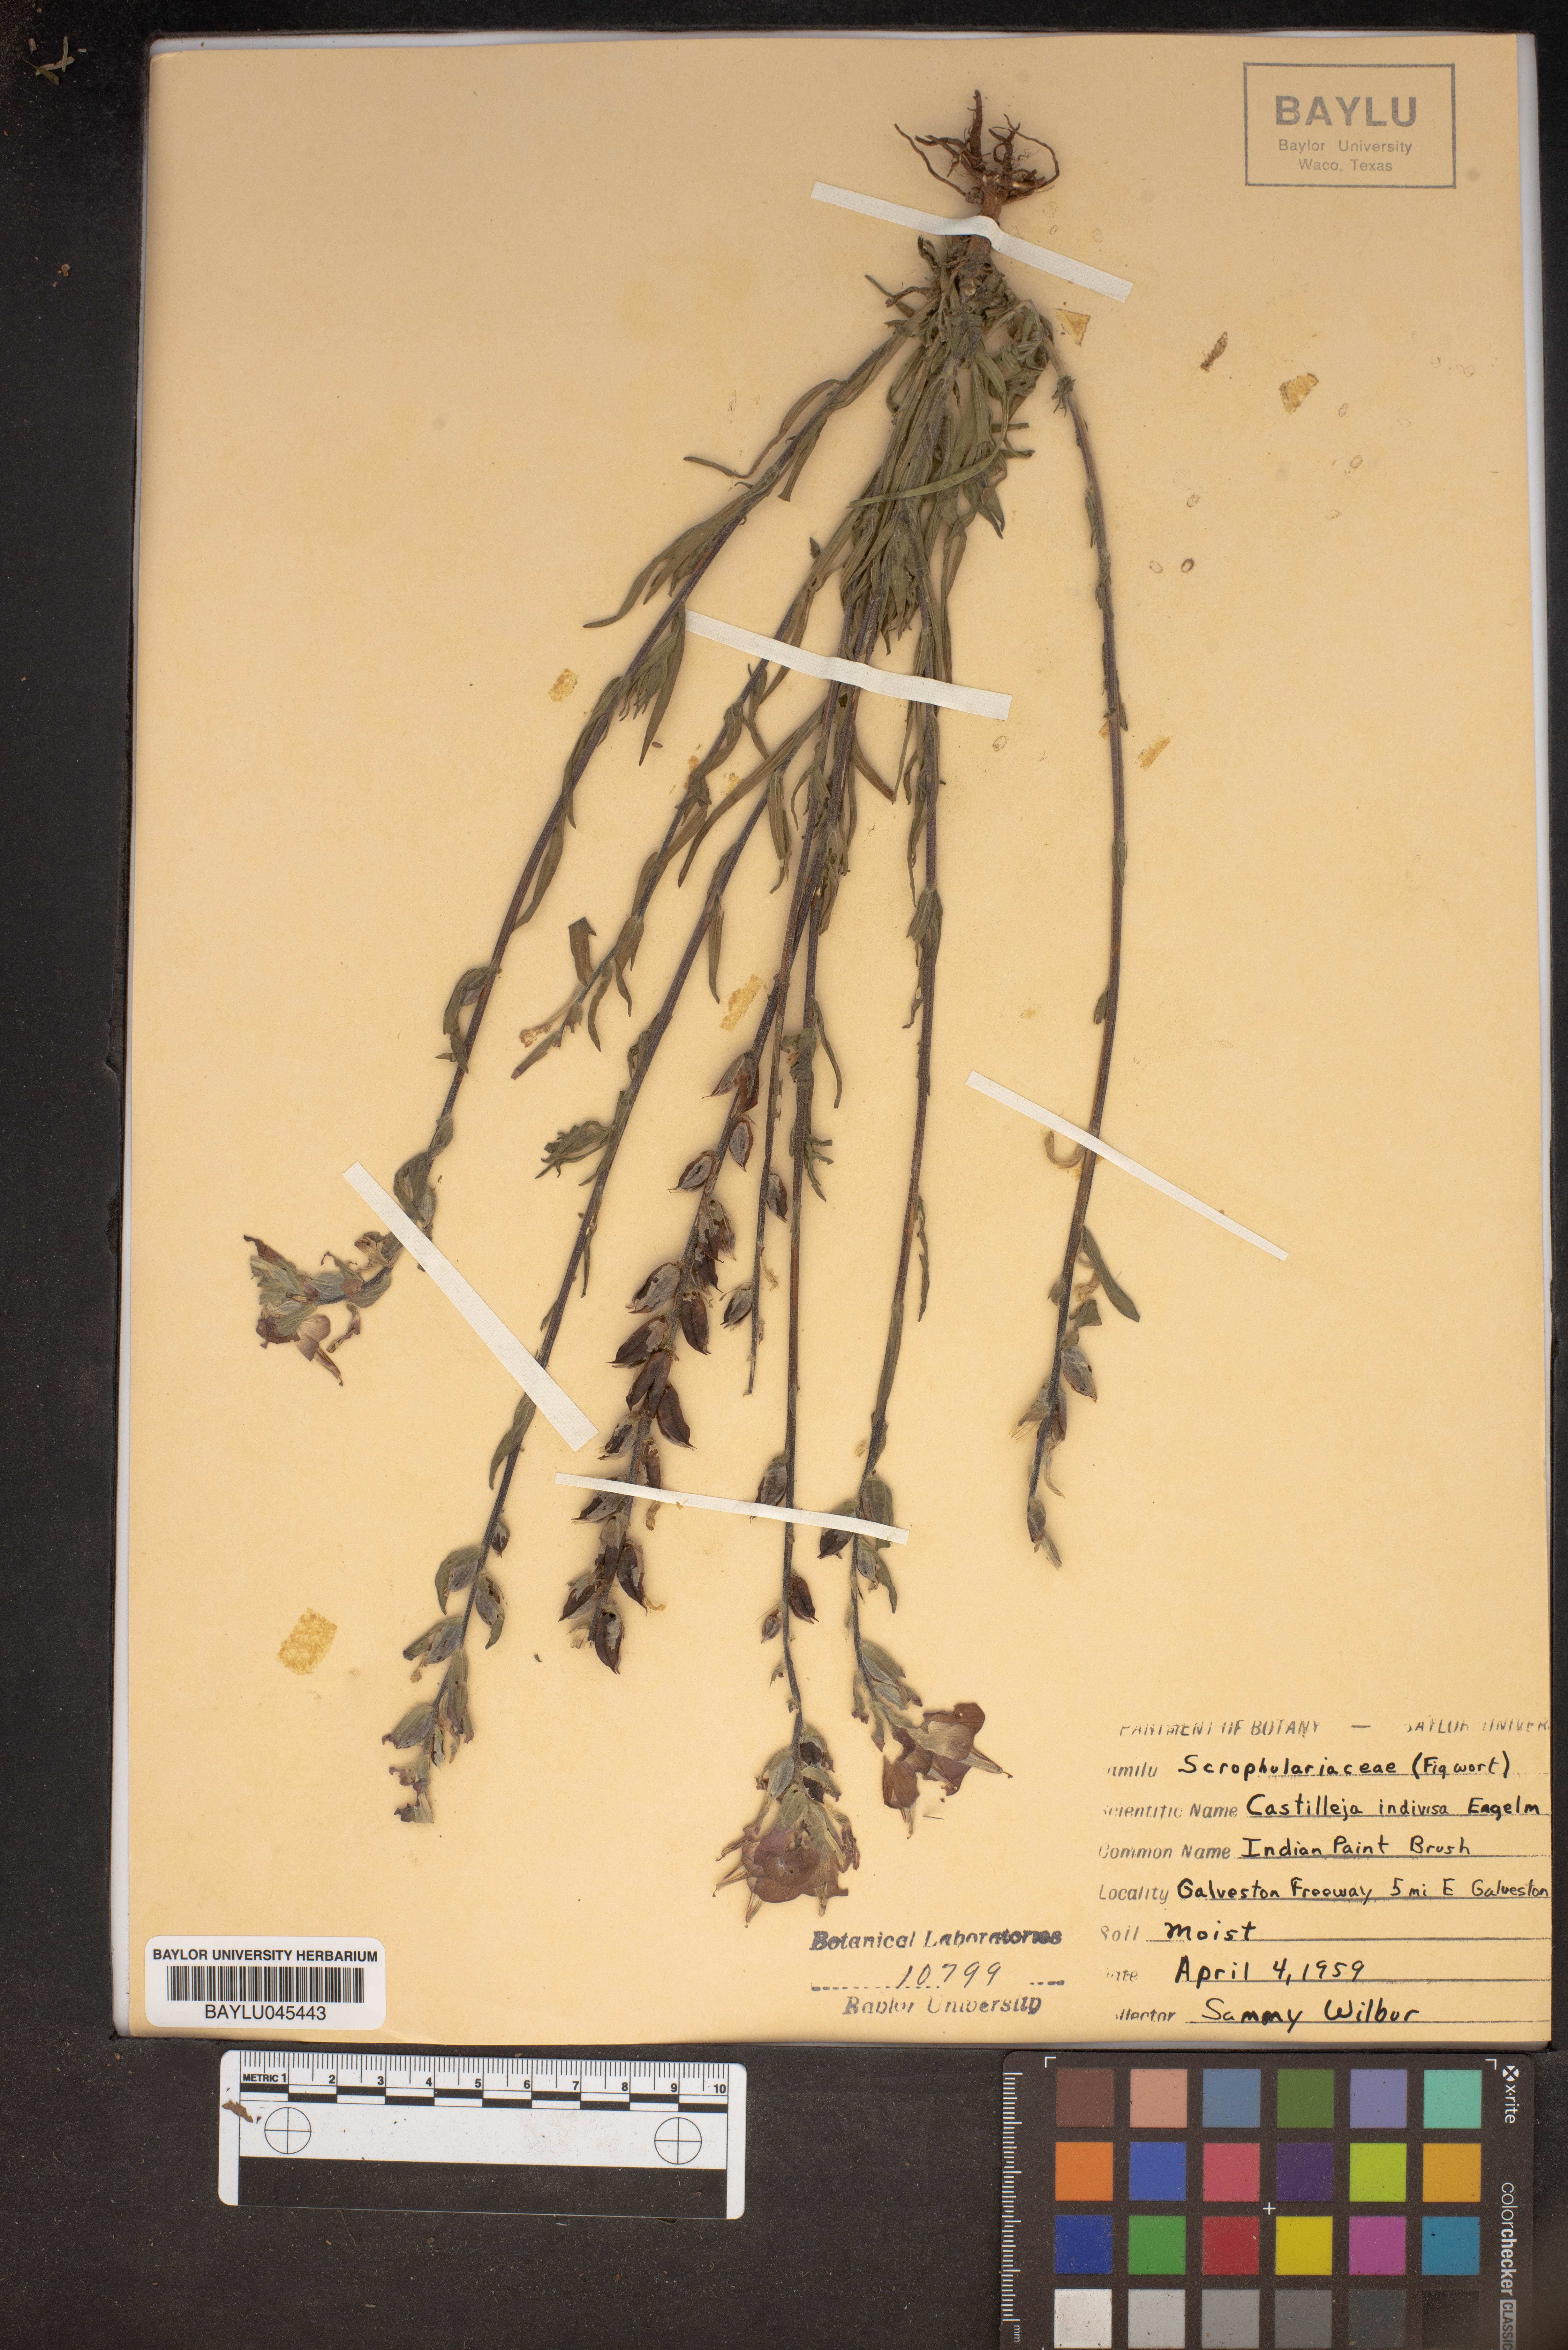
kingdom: Plantae
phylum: Tracheophyta
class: Magnoliopsida
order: Lamiales
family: Orobanchaceae
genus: Castilleja
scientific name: Castilleja indivisa
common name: Texas paintbrush
